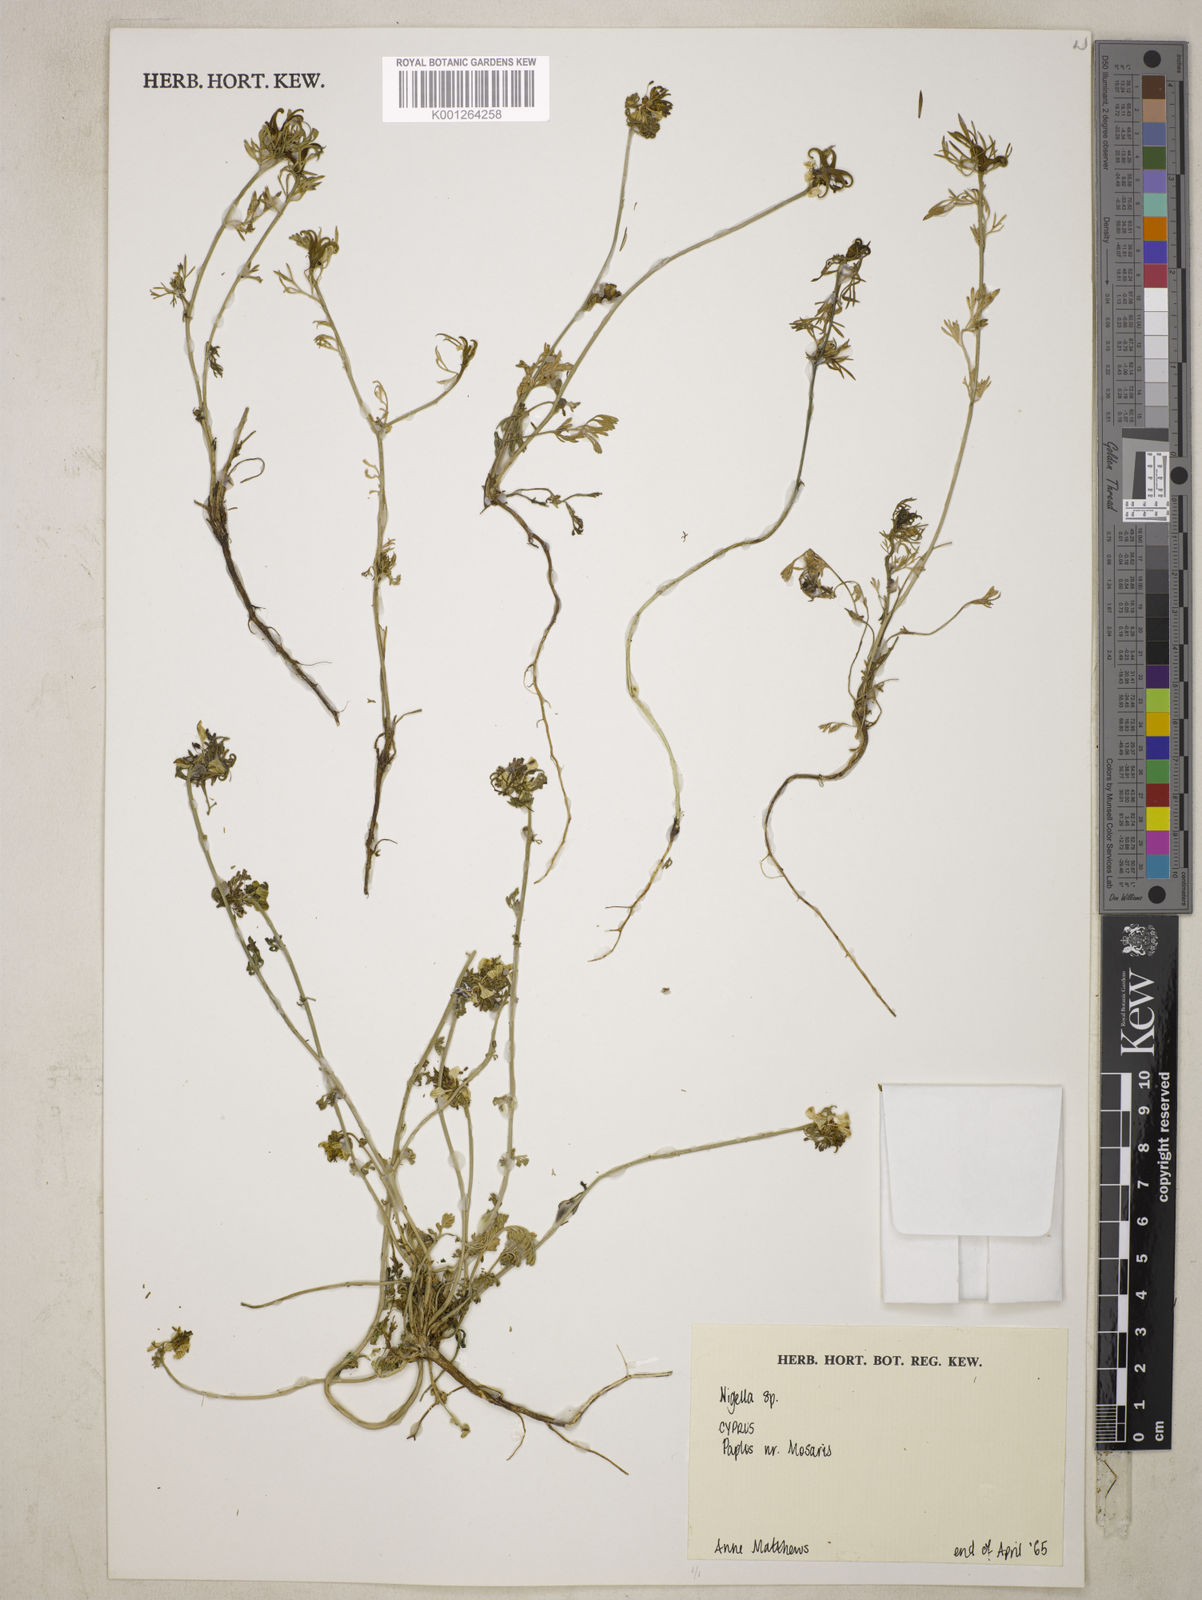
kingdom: Plantae
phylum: Tracheophyta
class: Magnoliopsida
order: Ranunculales
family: Ranunculaceae
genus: Nigella
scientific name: Nigella
